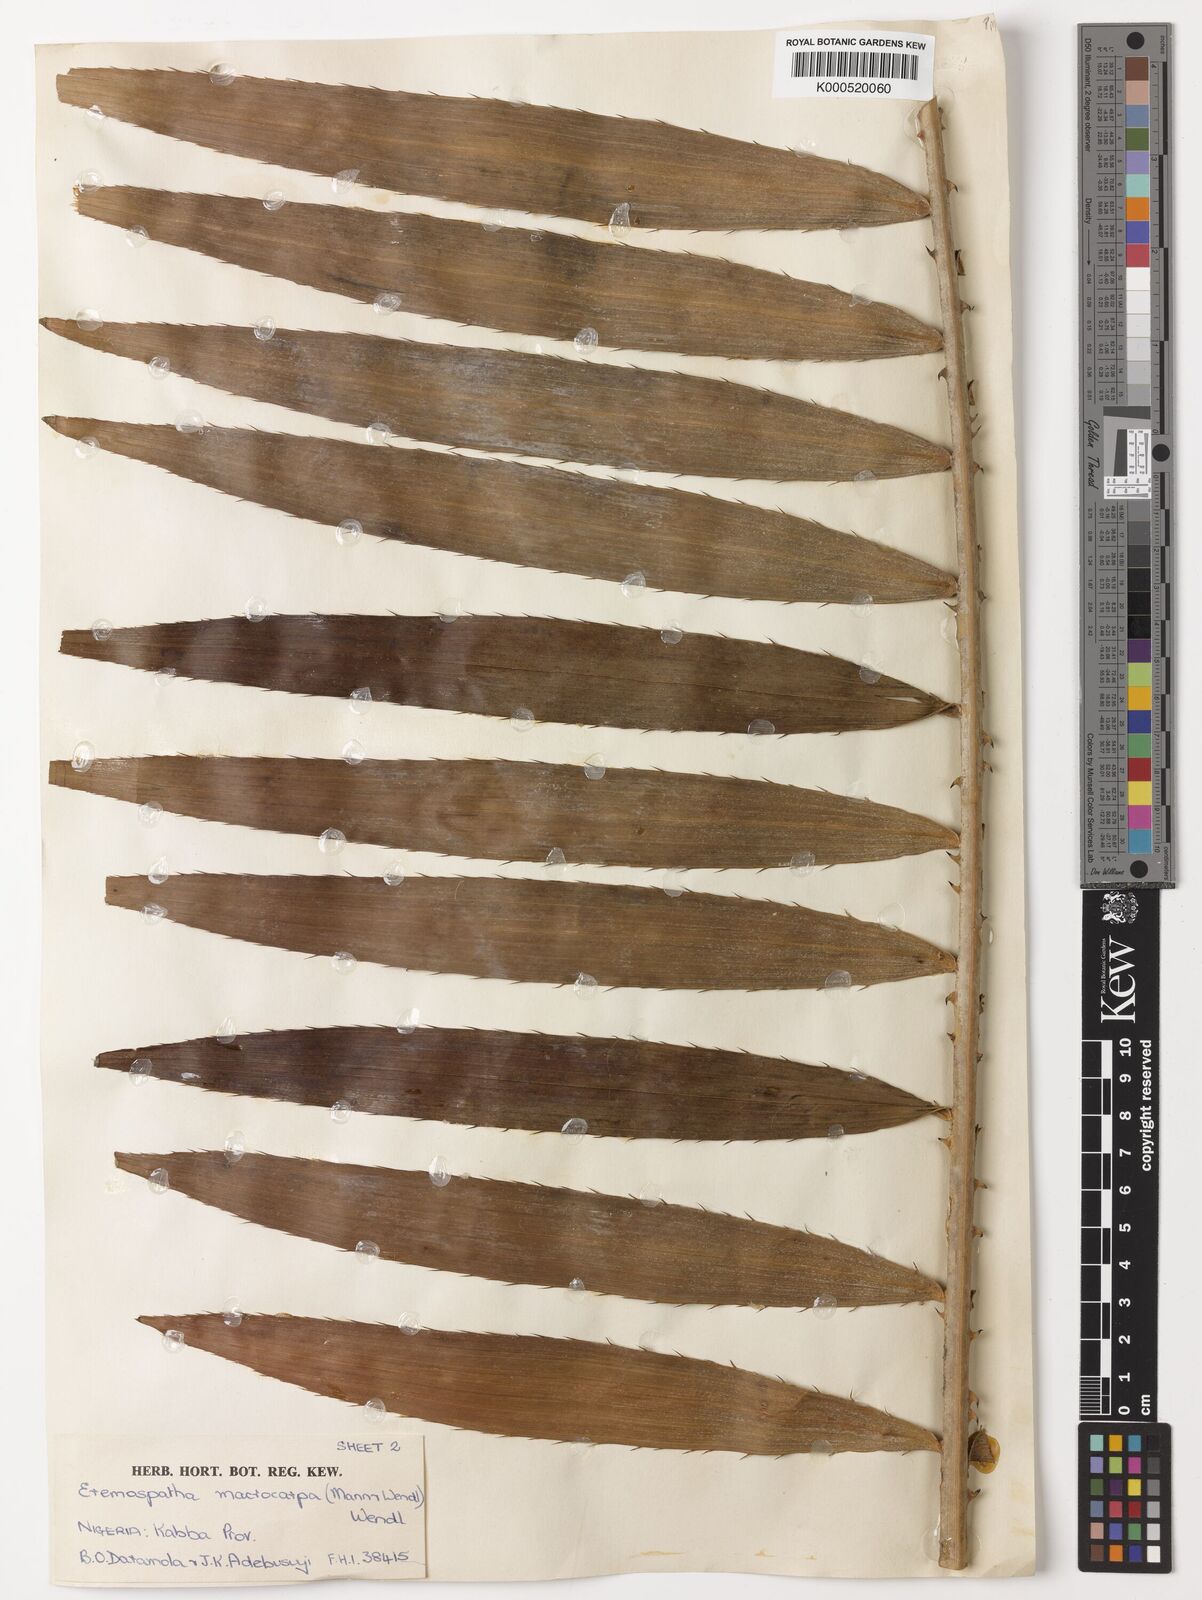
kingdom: Plantae
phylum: Tracheophyta
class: Liliopsida
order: Arecales
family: Arecaceae
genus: Eremospatha
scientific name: Eremospatha
